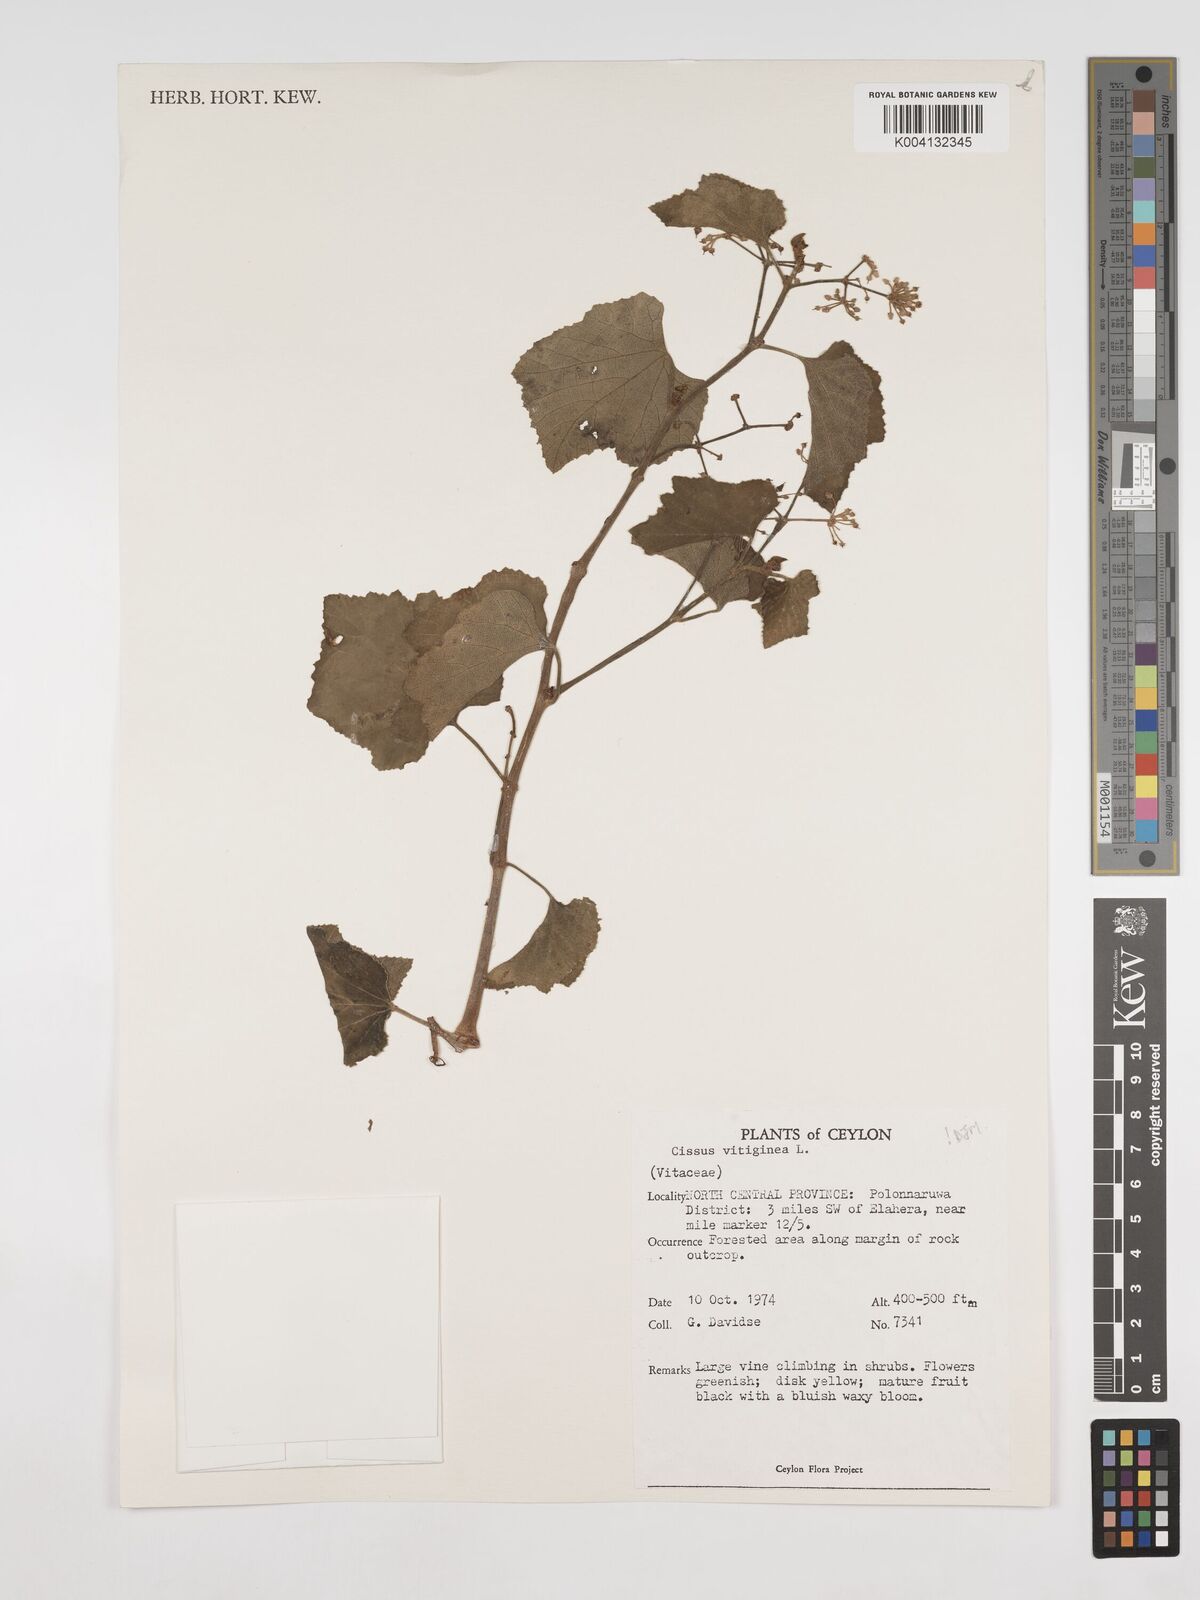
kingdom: Plantae
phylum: Tracheophyta
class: Magnoliopsida
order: Vitales
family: Vitaceae
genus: Cissus
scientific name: Cissus vitiginea
